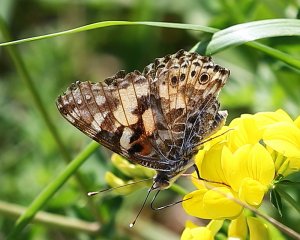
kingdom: Animalia
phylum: Arthropoda
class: Insecta
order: Lepidoptera
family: Nymphalidae
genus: Vanessa
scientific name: Vanessa cardui
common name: Painted Lady
